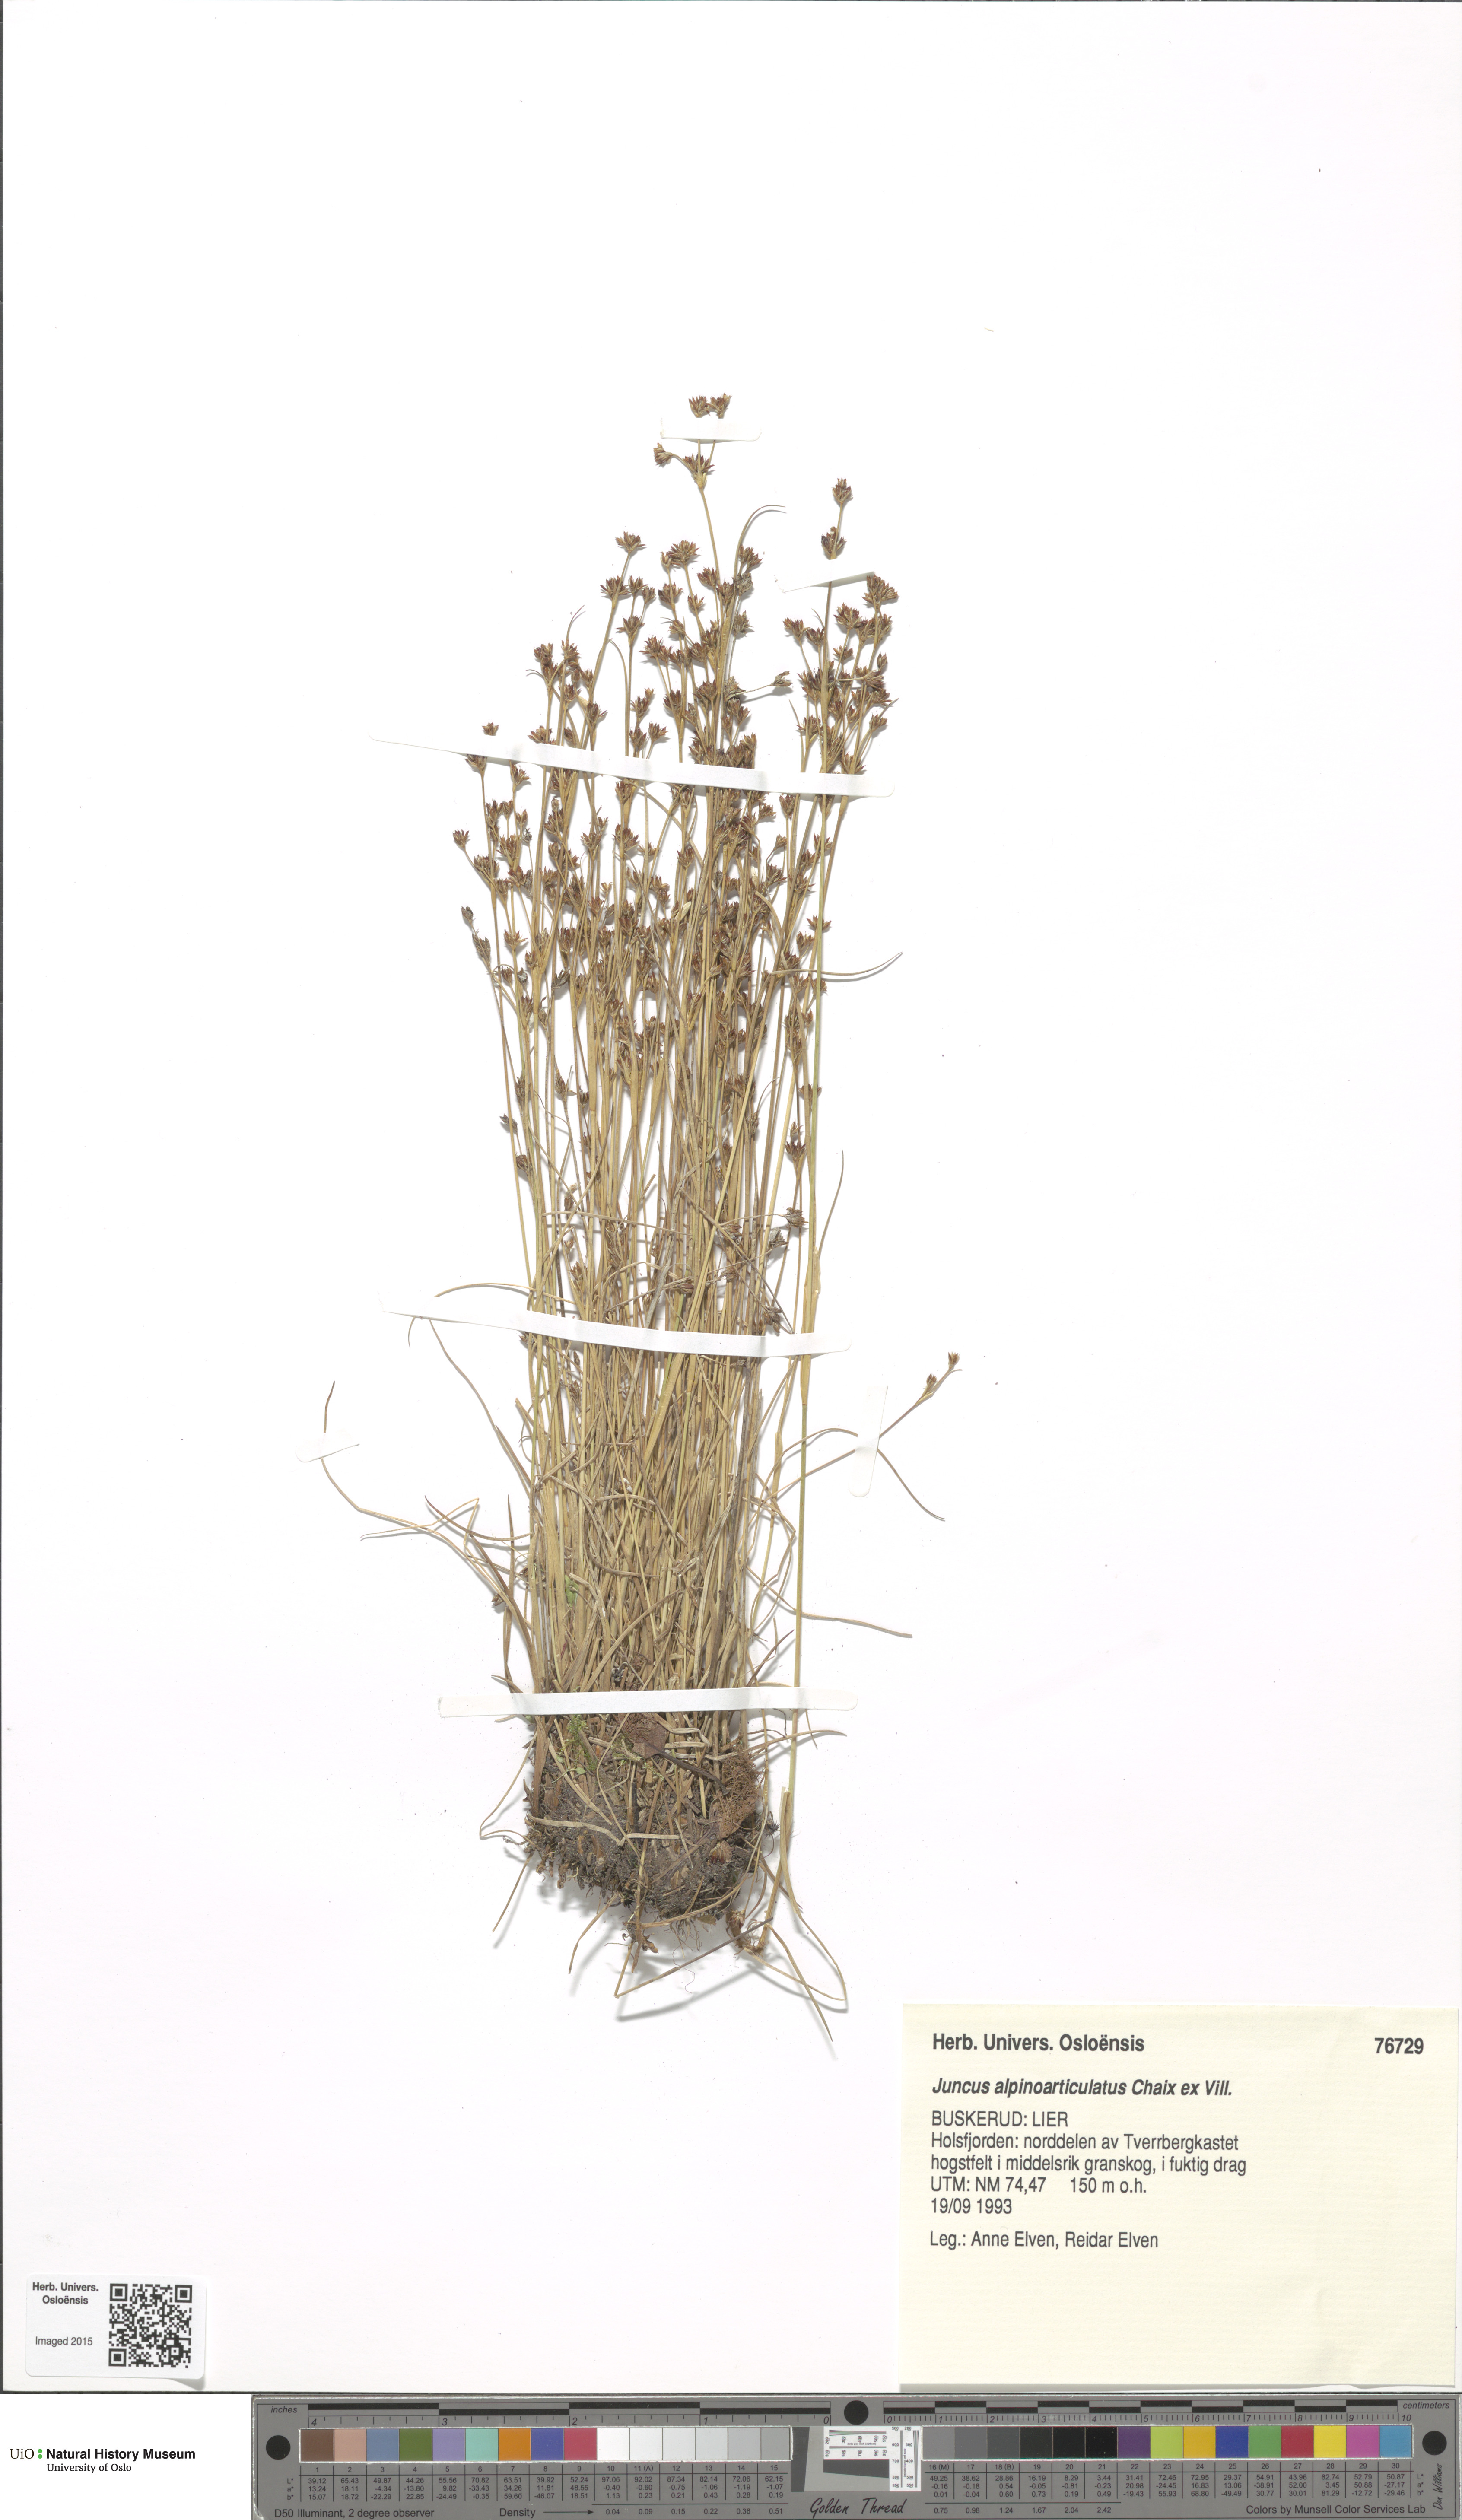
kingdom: Plantae
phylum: Tracheophyta
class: Liliopsida
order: Poales
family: Juncaceae
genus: Juncus
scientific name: Juncus alpinoarticulatus
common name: Alpine rush
